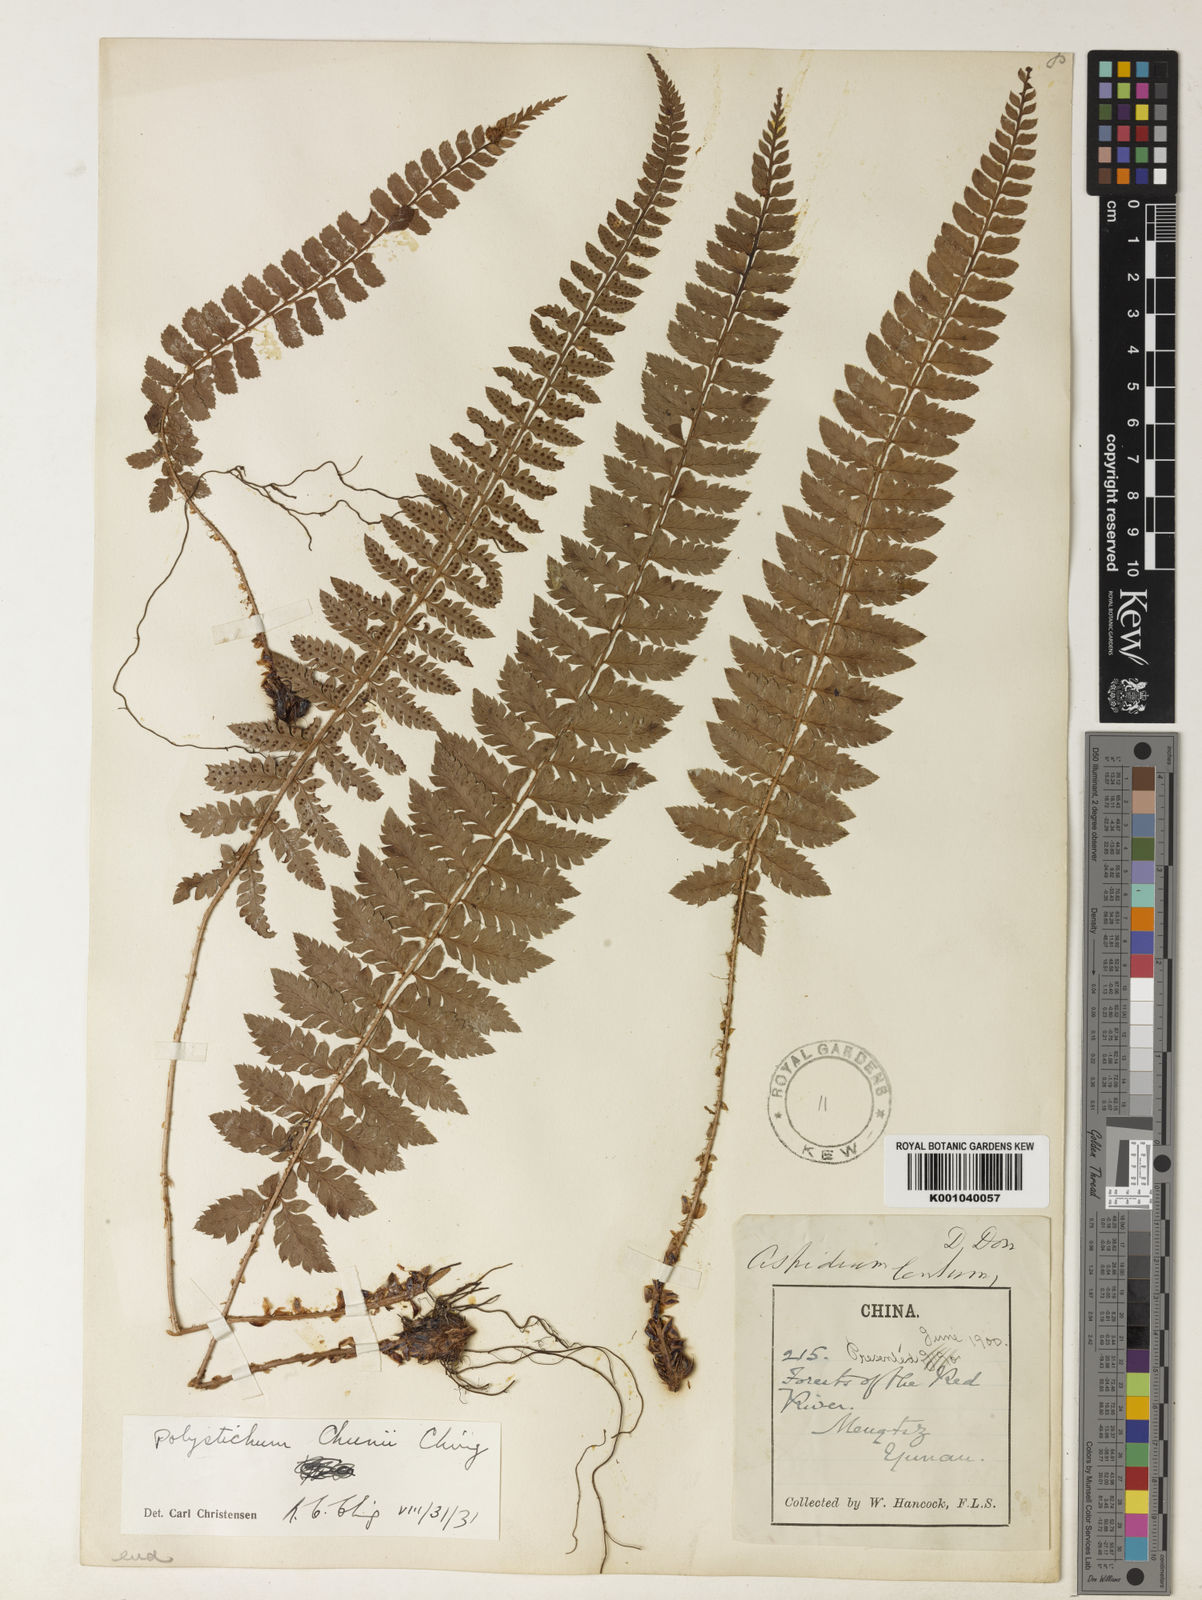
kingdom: Plantae
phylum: Tracheophyta
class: Polypodiopsida
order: Polypodiales
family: Dryopteridaceae
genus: Polystichum
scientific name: Polystichum chunii
